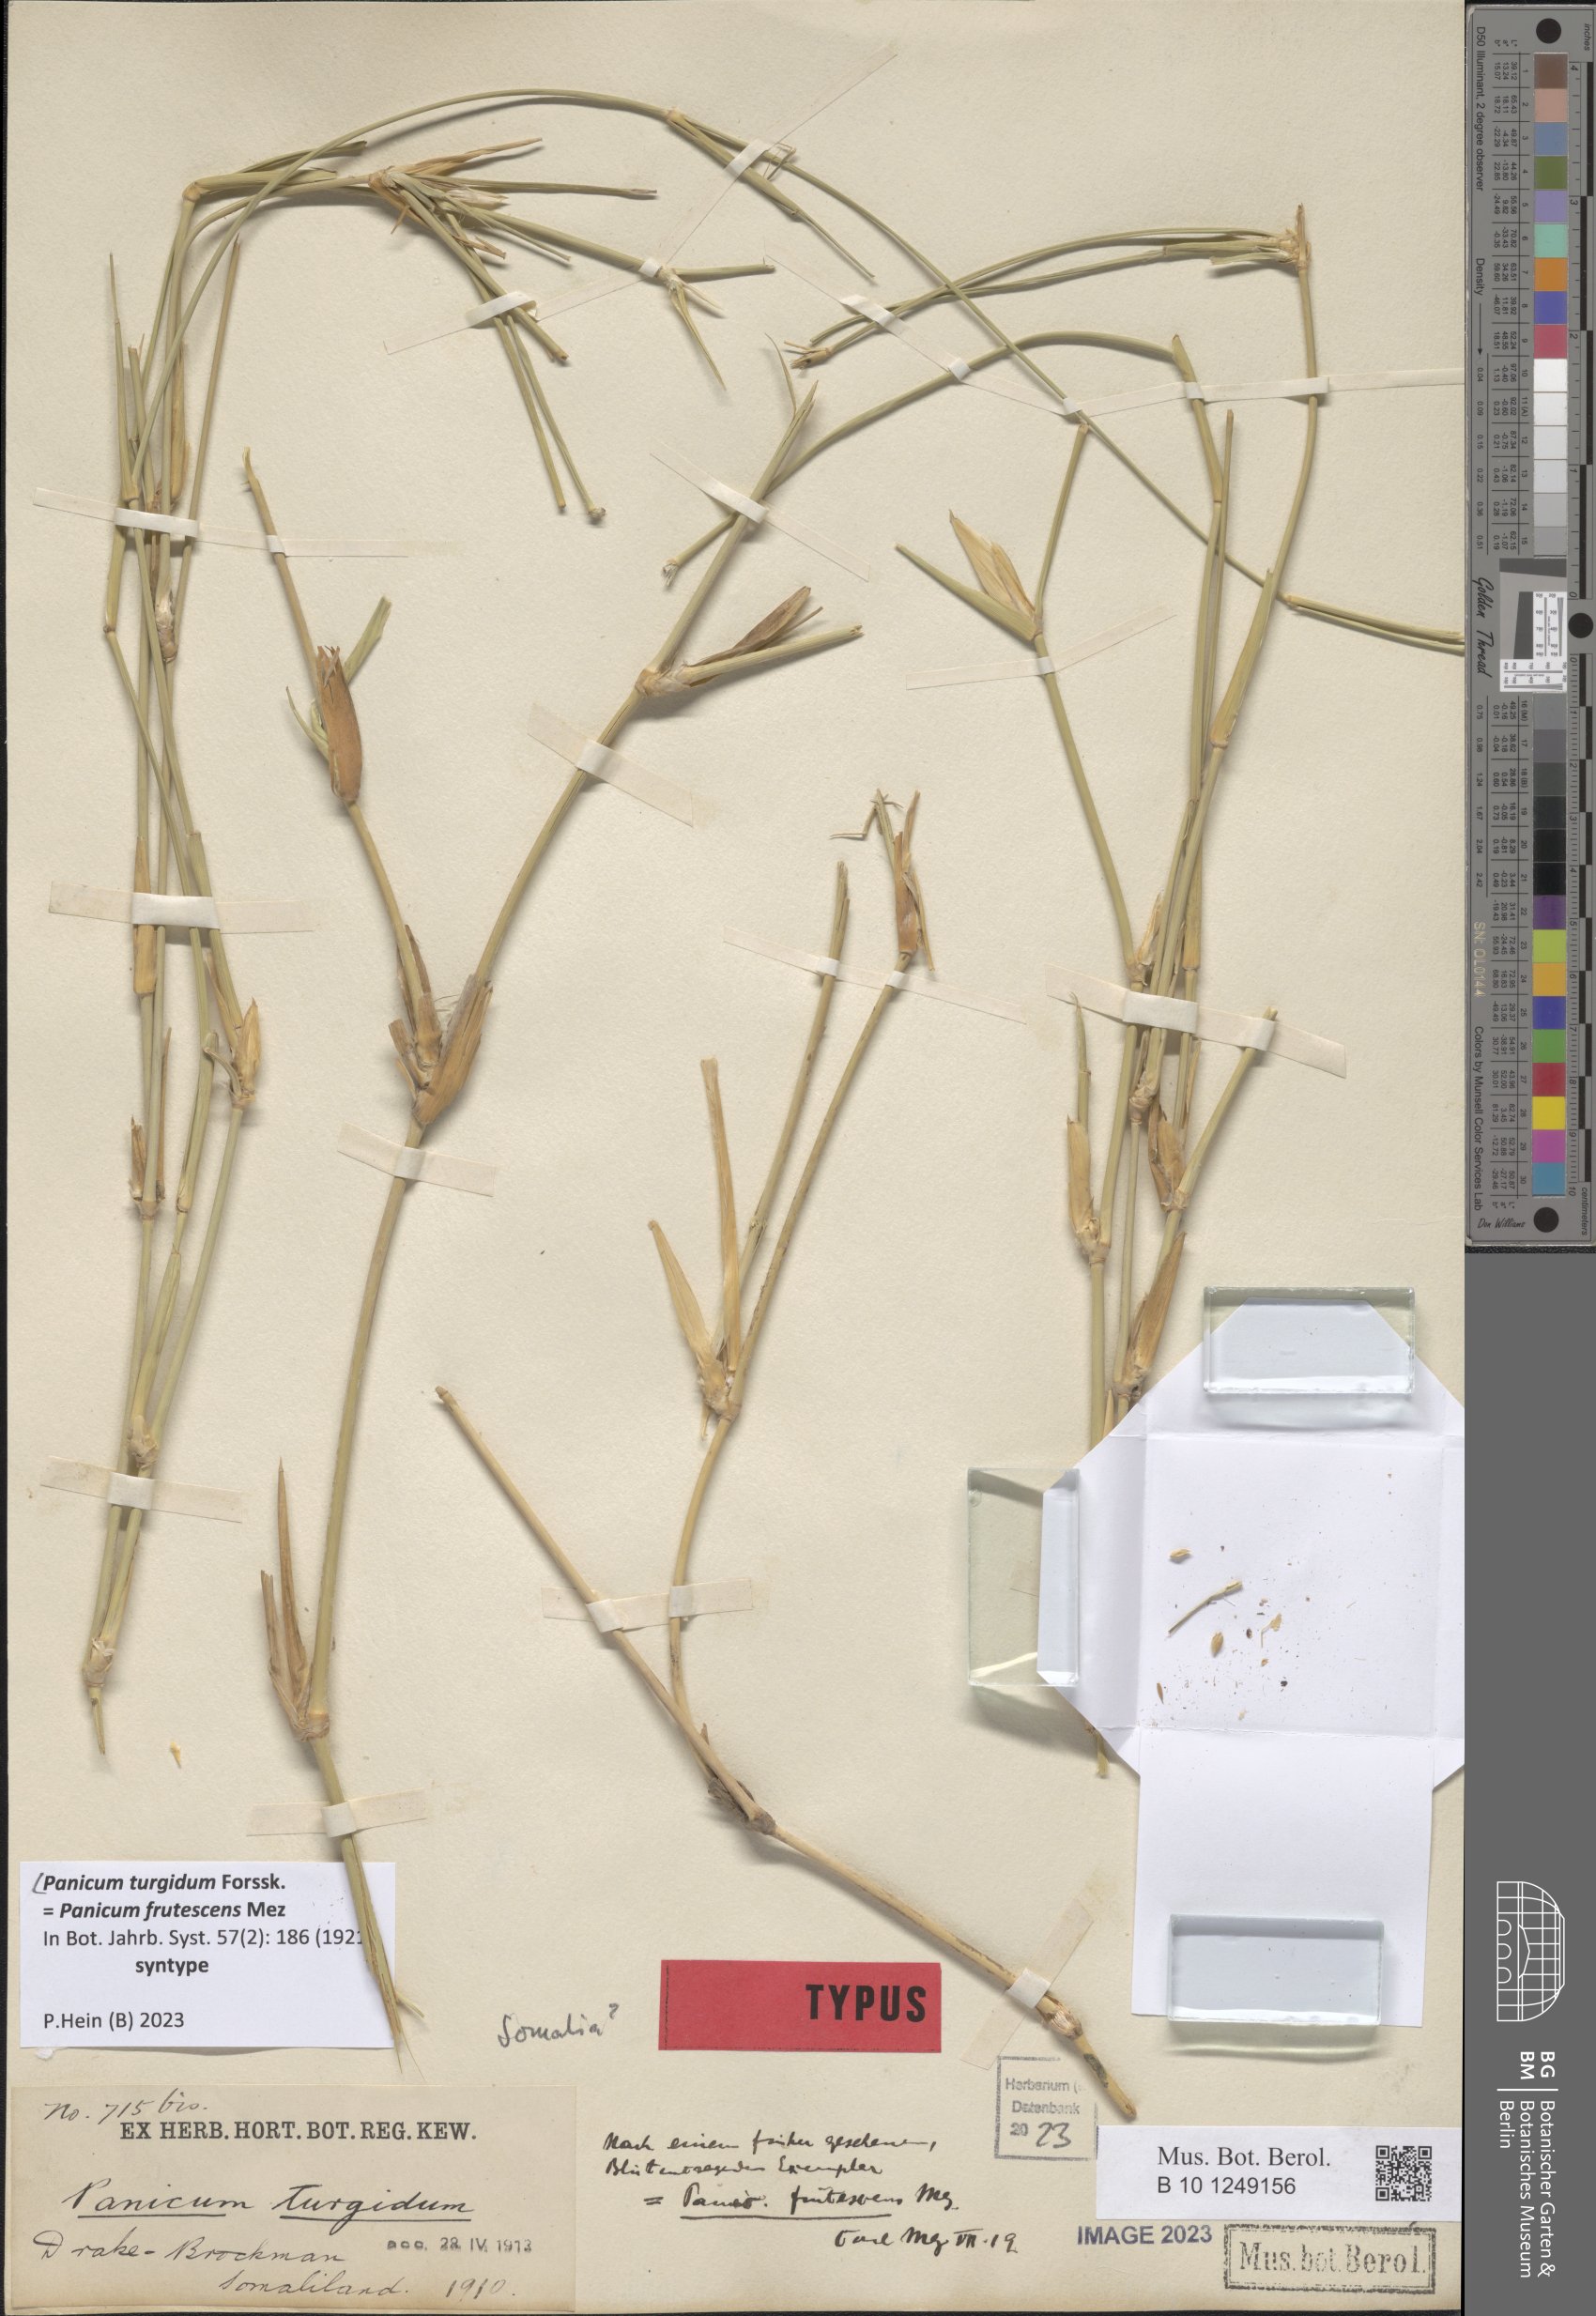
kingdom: Plantae
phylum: Tracheophyta
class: Liliopsida
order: Poales
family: Poaceae
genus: Panicum
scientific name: Panicum turgidum
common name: Desert grass
